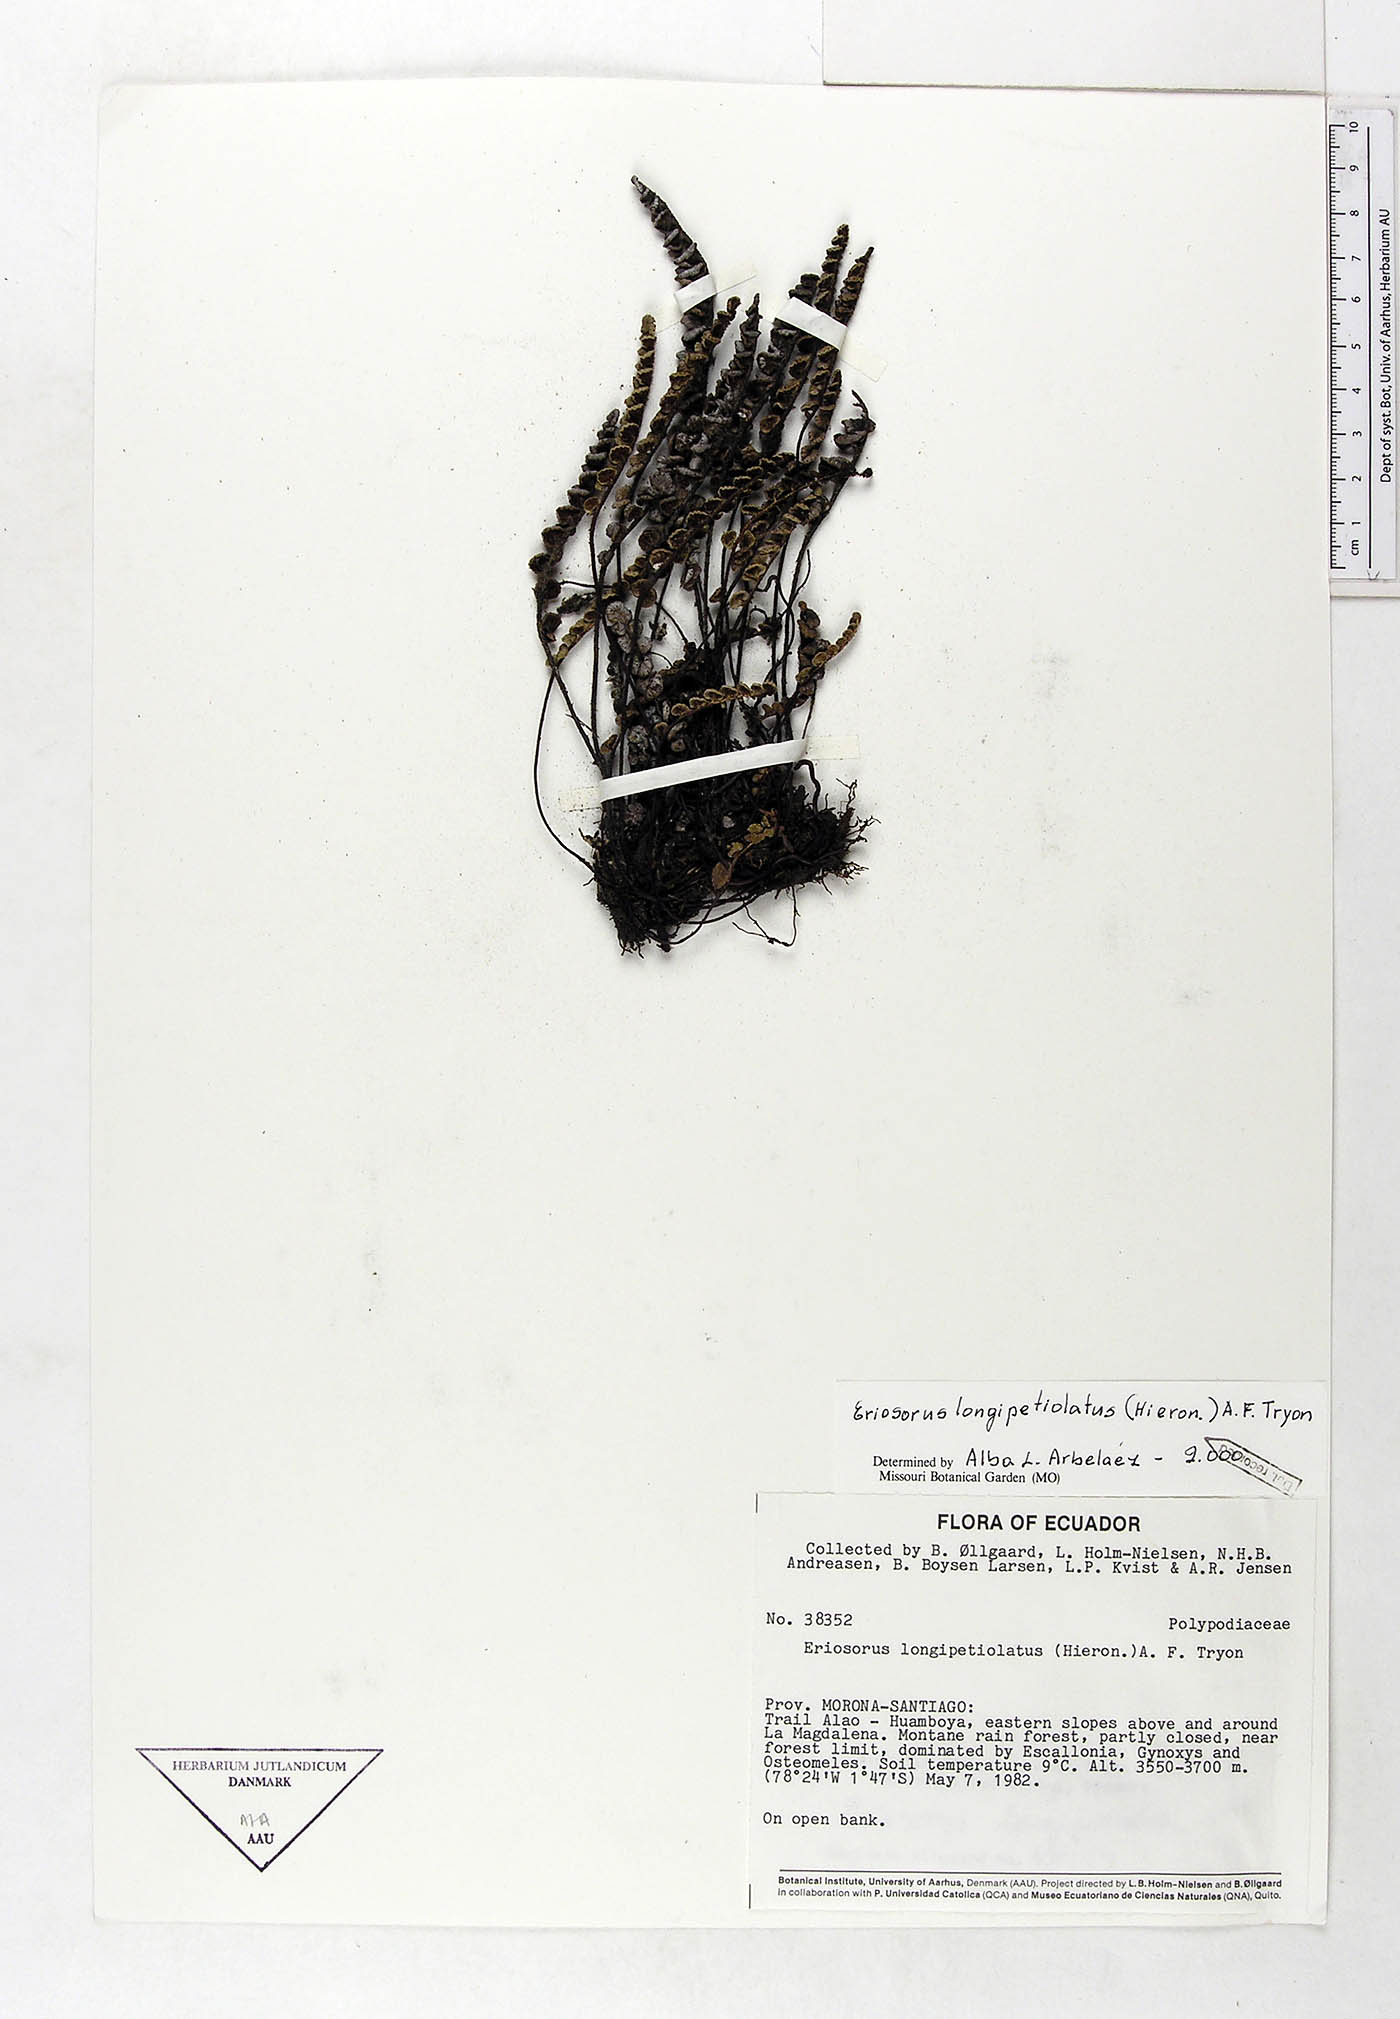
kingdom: Plantae
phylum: Tracheophyta
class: Polypodiopsida
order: Polypodiales
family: Pteridaceae
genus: Jamesonia
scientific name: Jamesonia longipetiolata
